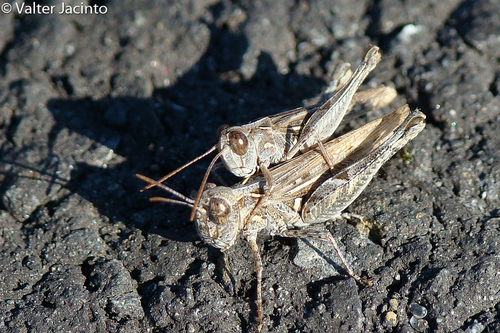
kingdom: Animalia
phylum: Arthropoda
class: Insecta
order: Orthoptera
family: Acrididae
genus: Dociostaurus
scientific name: Dociostaurus jagoi
